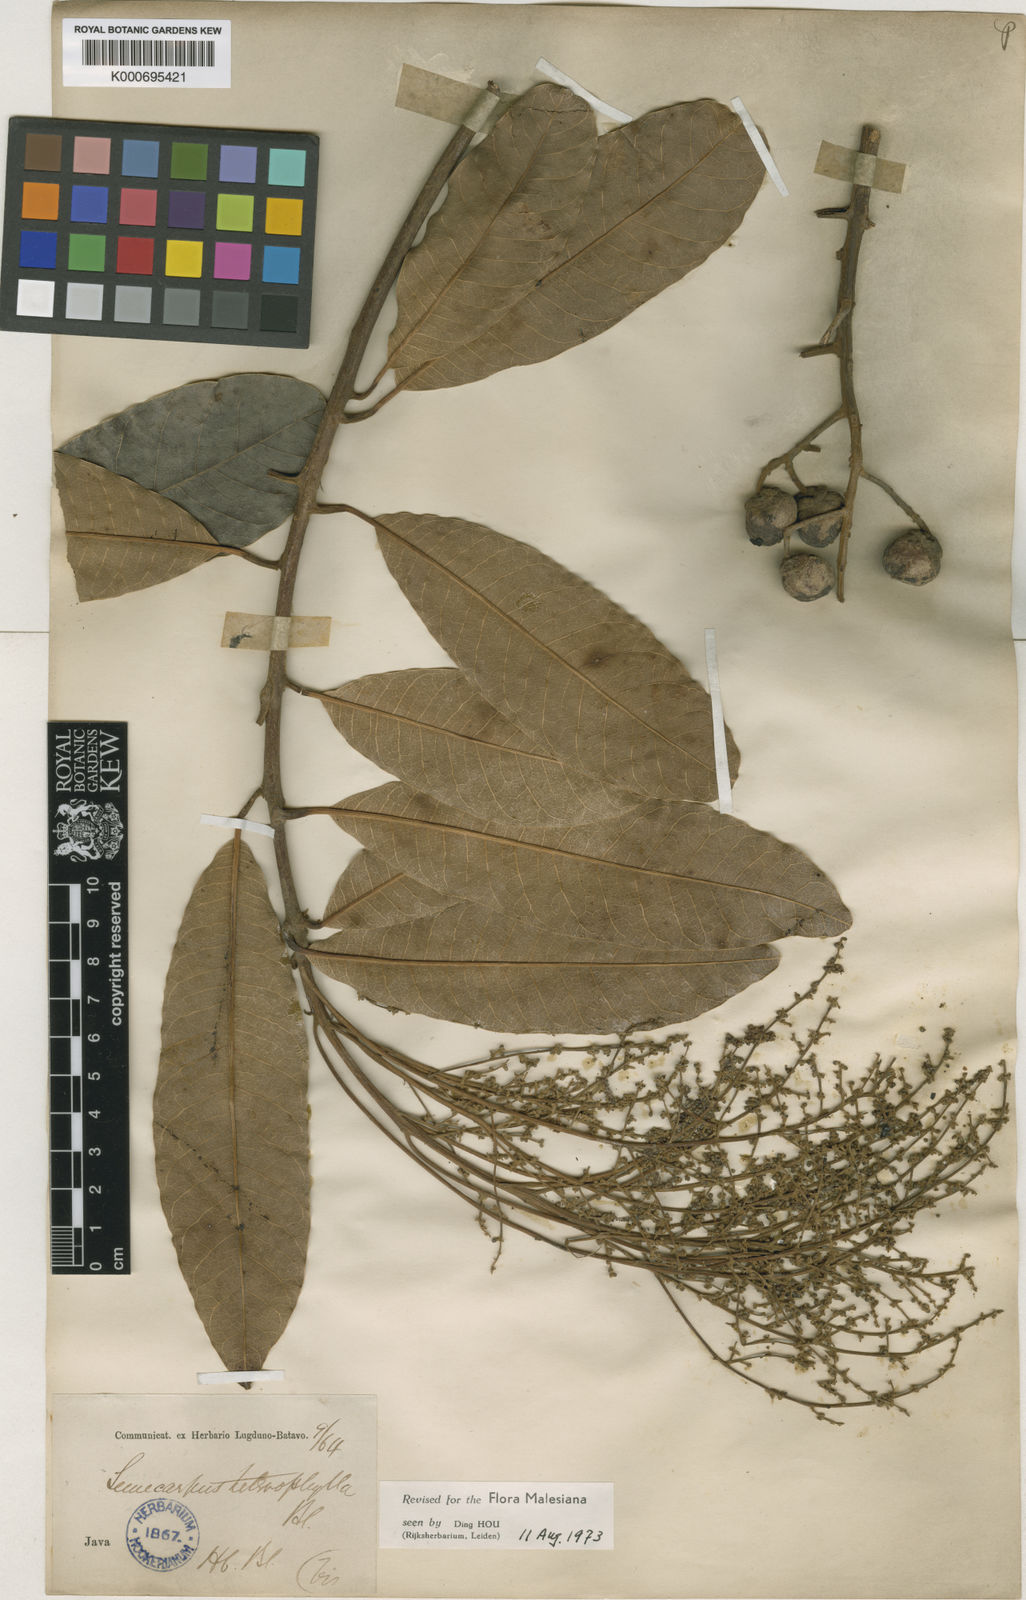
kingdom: Plantae
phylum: Tracheophyta
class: Magnoliopsida
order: Sapindales
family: Anacardiaceae
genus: Semecarpus
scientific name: Semecarpus heterophyllus
